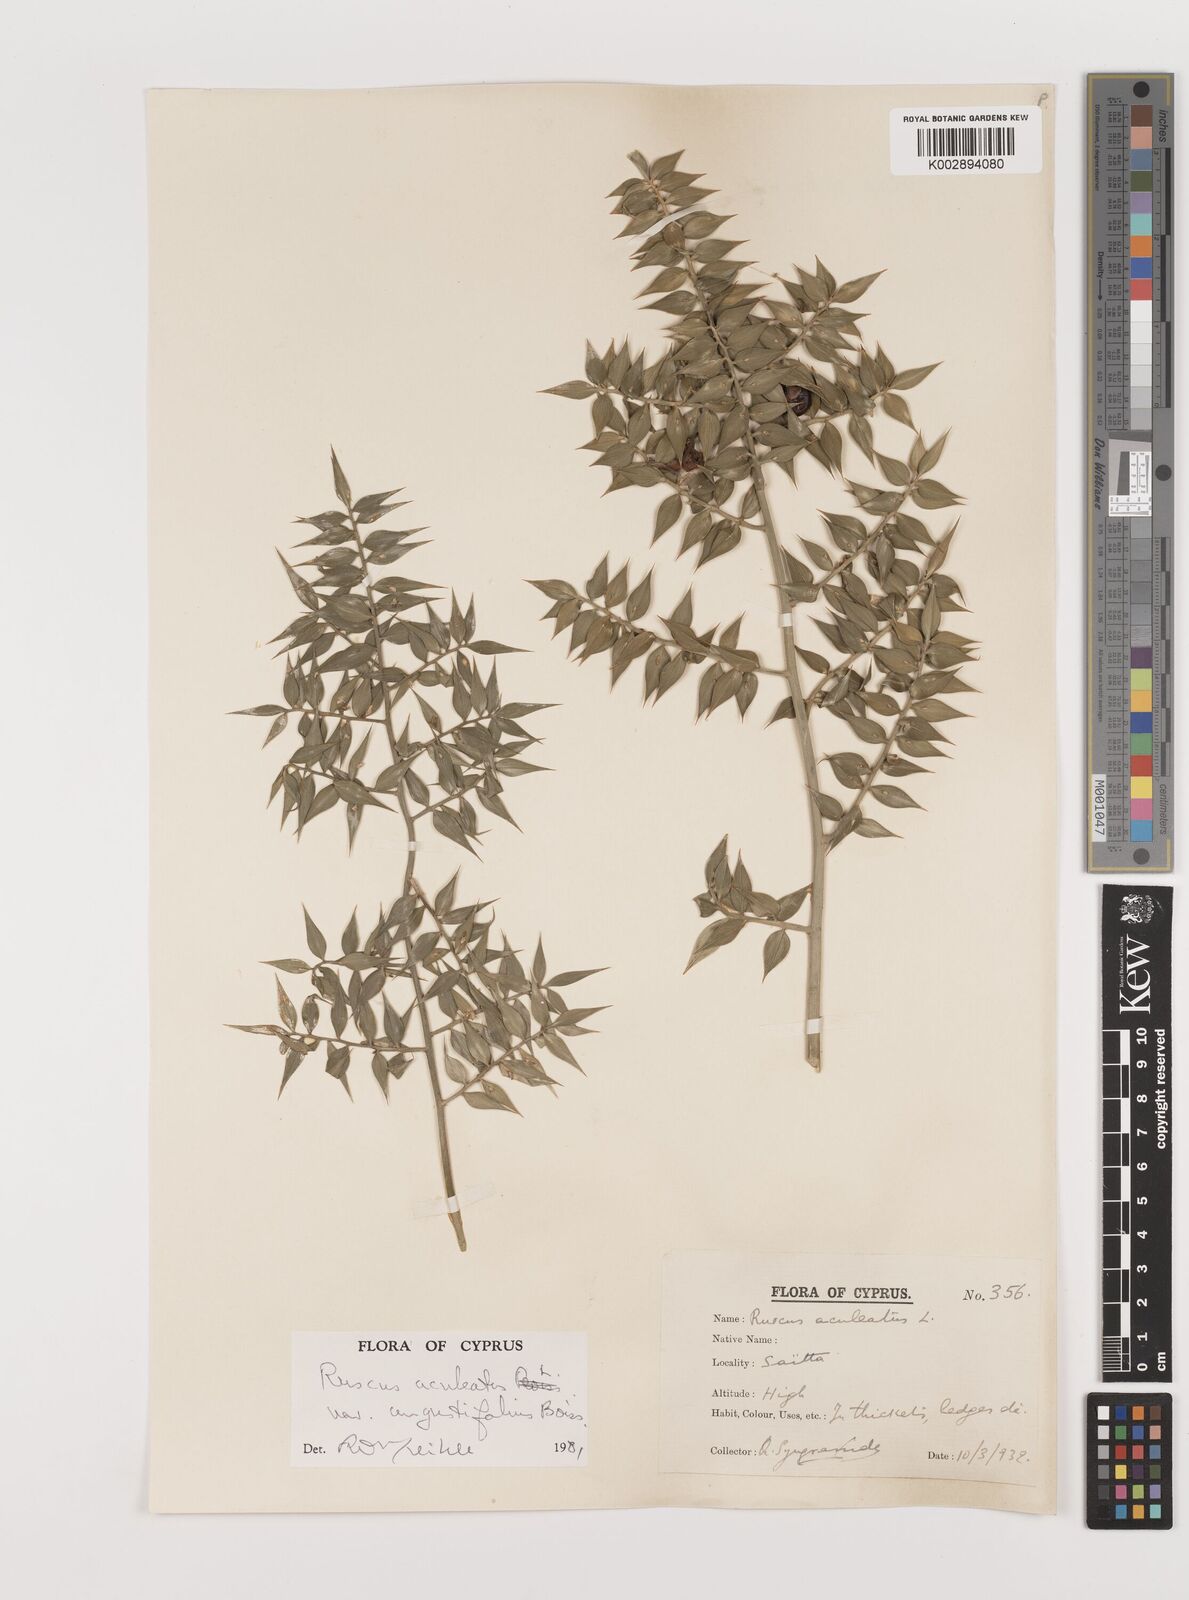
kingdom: Plantae
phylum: Tracheophyta
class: Liliopsida
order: Asparagales
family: Asparagaceae
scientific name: Asparagaceae
